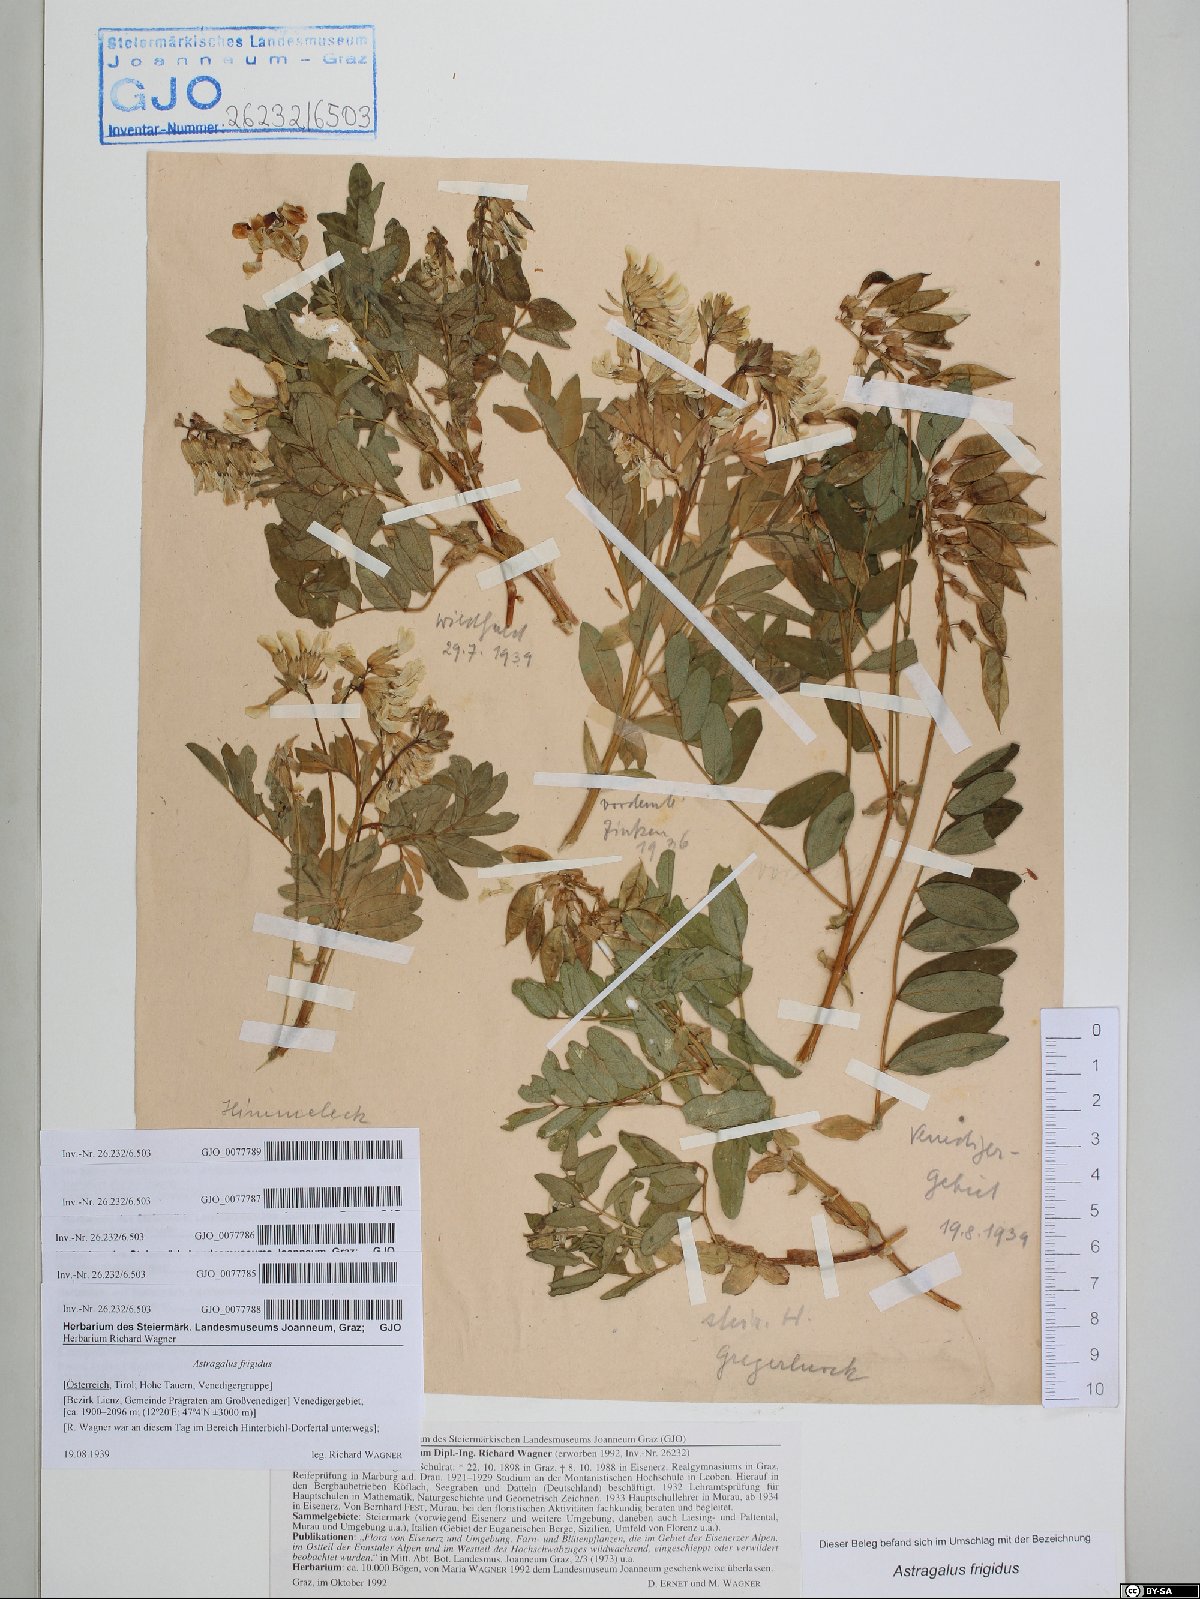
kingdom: Plantae
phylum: Tracheophyta
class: Magnoliopsida
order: Fabales
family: Fabaceae
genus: Astragalus
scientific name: Astragalus frigidus
